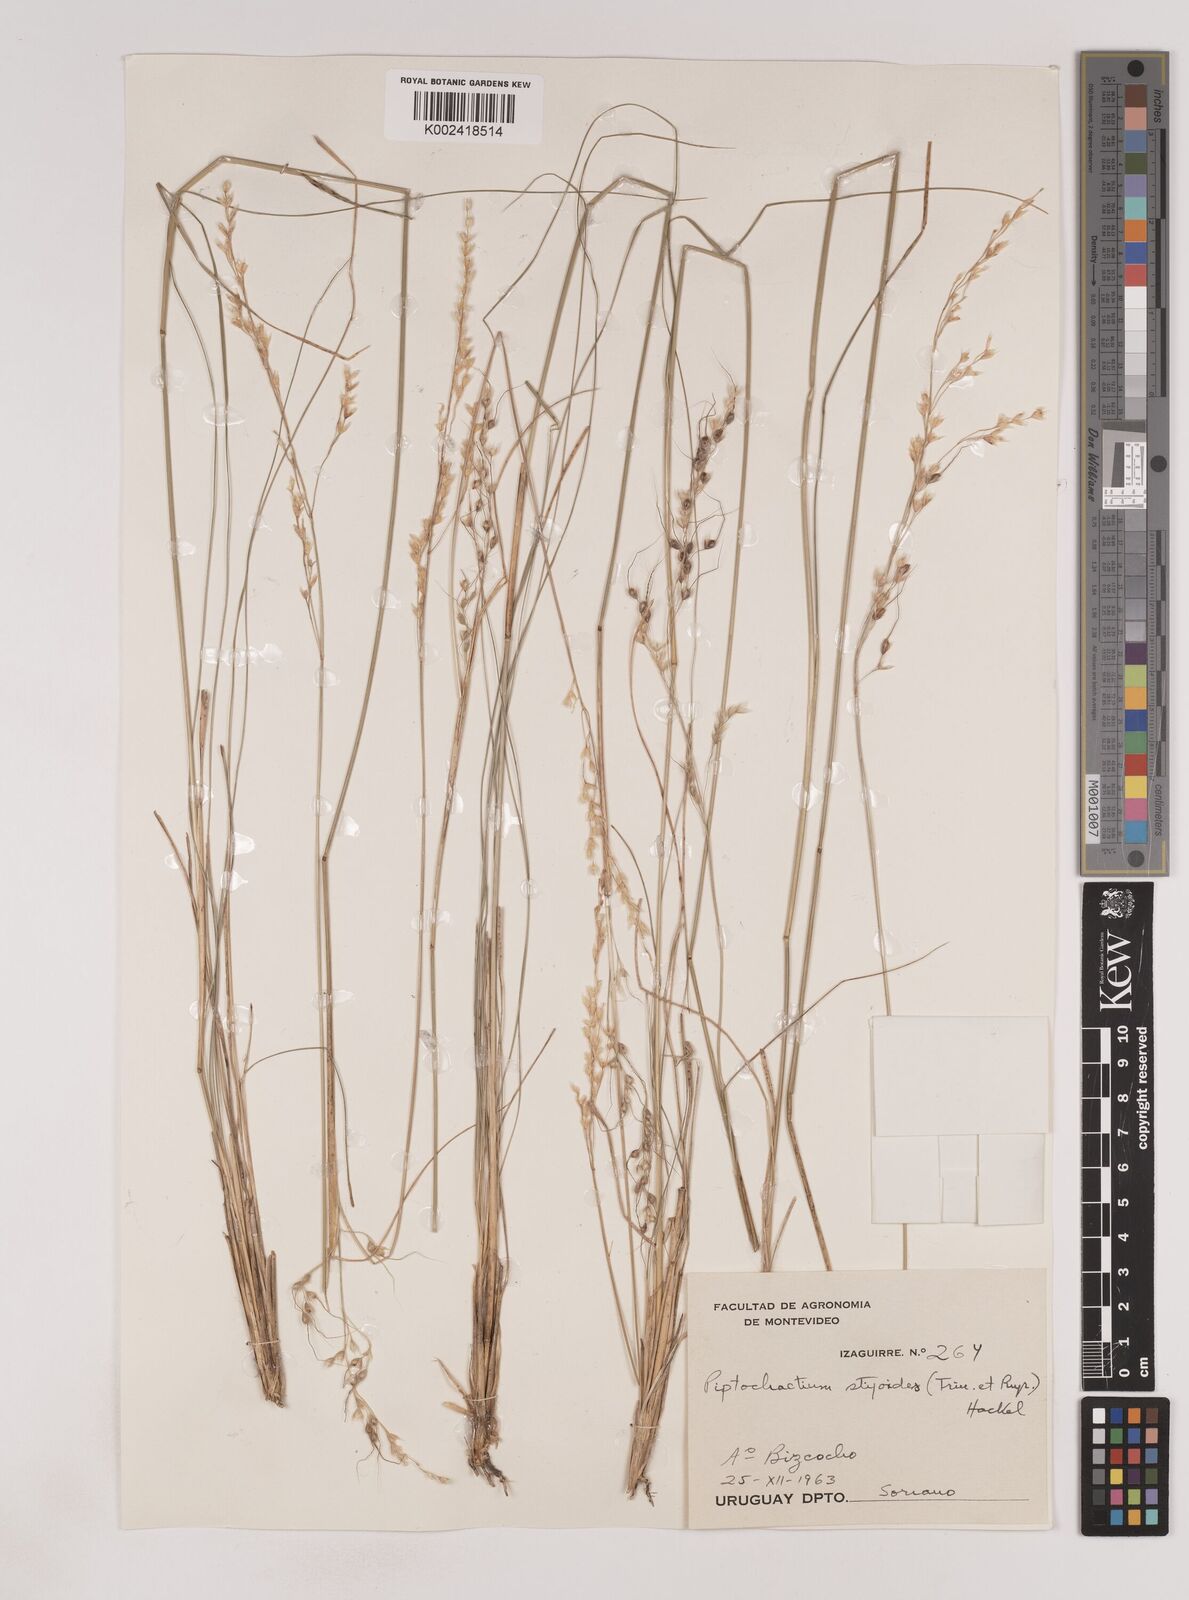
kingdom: Plantae
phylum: Tracheophyta
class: Liliopsida
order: Poales
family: Poaceae
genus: Piptochaetium
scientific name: Piptochaetium stipoides
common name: Purple speargrass
